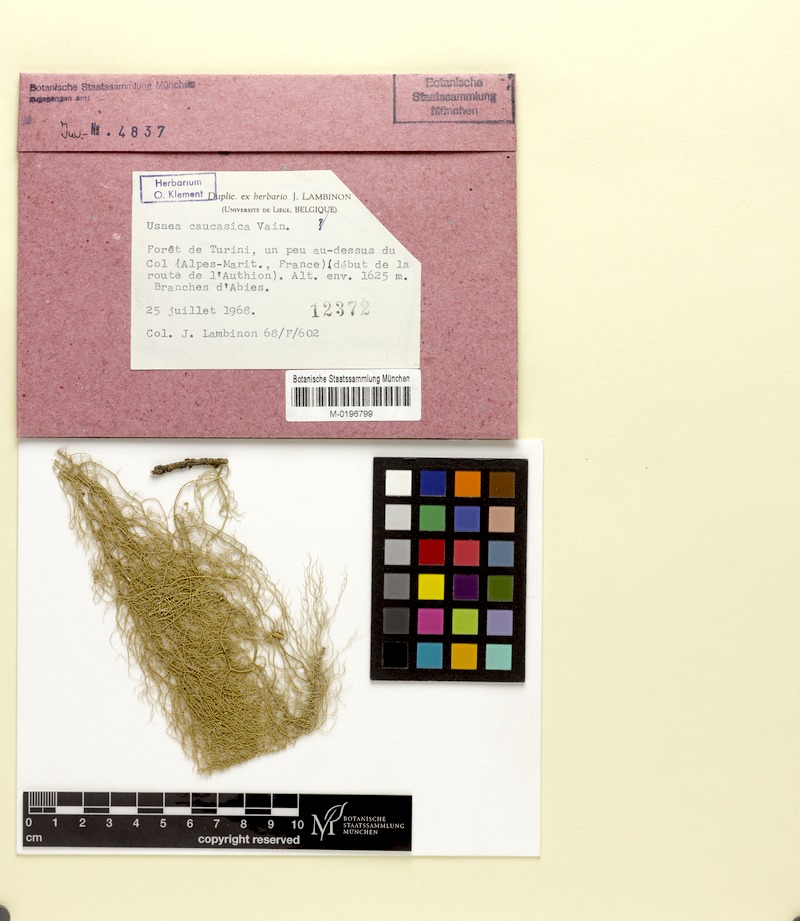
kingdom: Fungi
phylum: Ascomycota
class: Lecanoromycetes
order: Lecanorales
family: Parmeliaceae
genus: Usnea
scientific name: Usnea dasopoga
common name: Fishbone beard lichen
